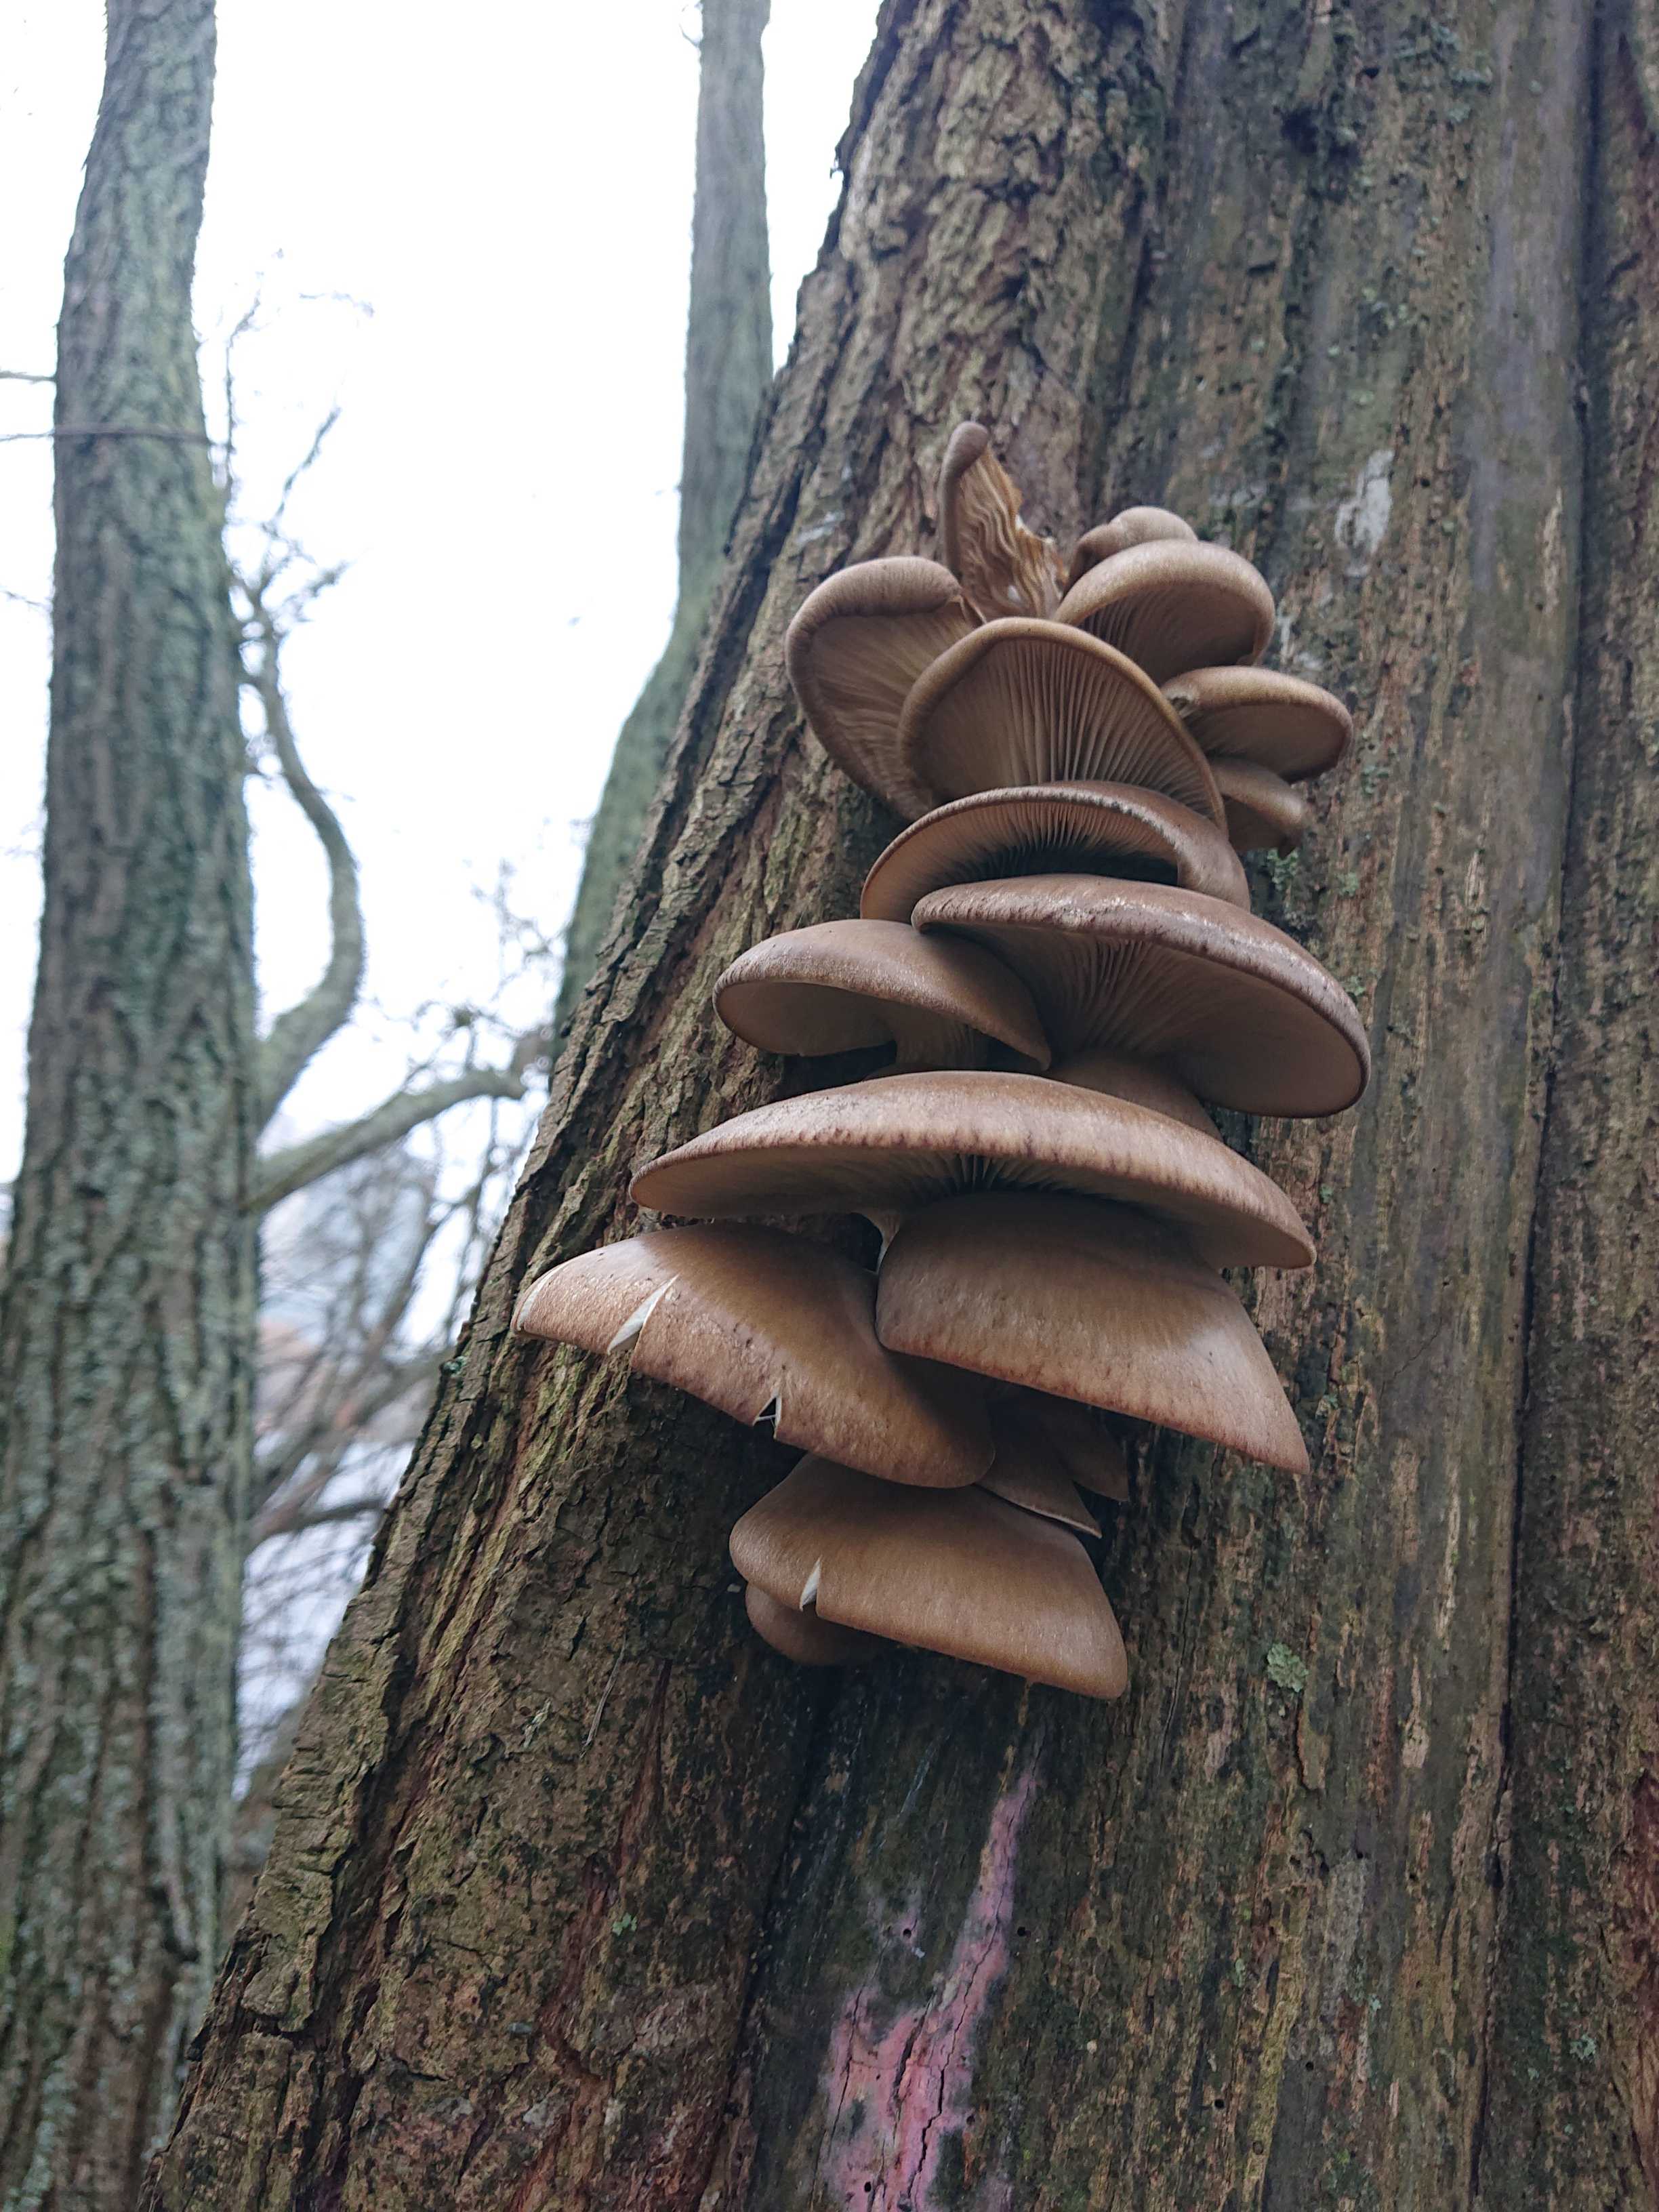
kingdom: Fungi
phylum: Basidiomycota
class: Agaricomycetes
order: Agaricales
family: Pleurotaceae
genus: Pleurotus
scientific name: Pleurotus ostreatus
